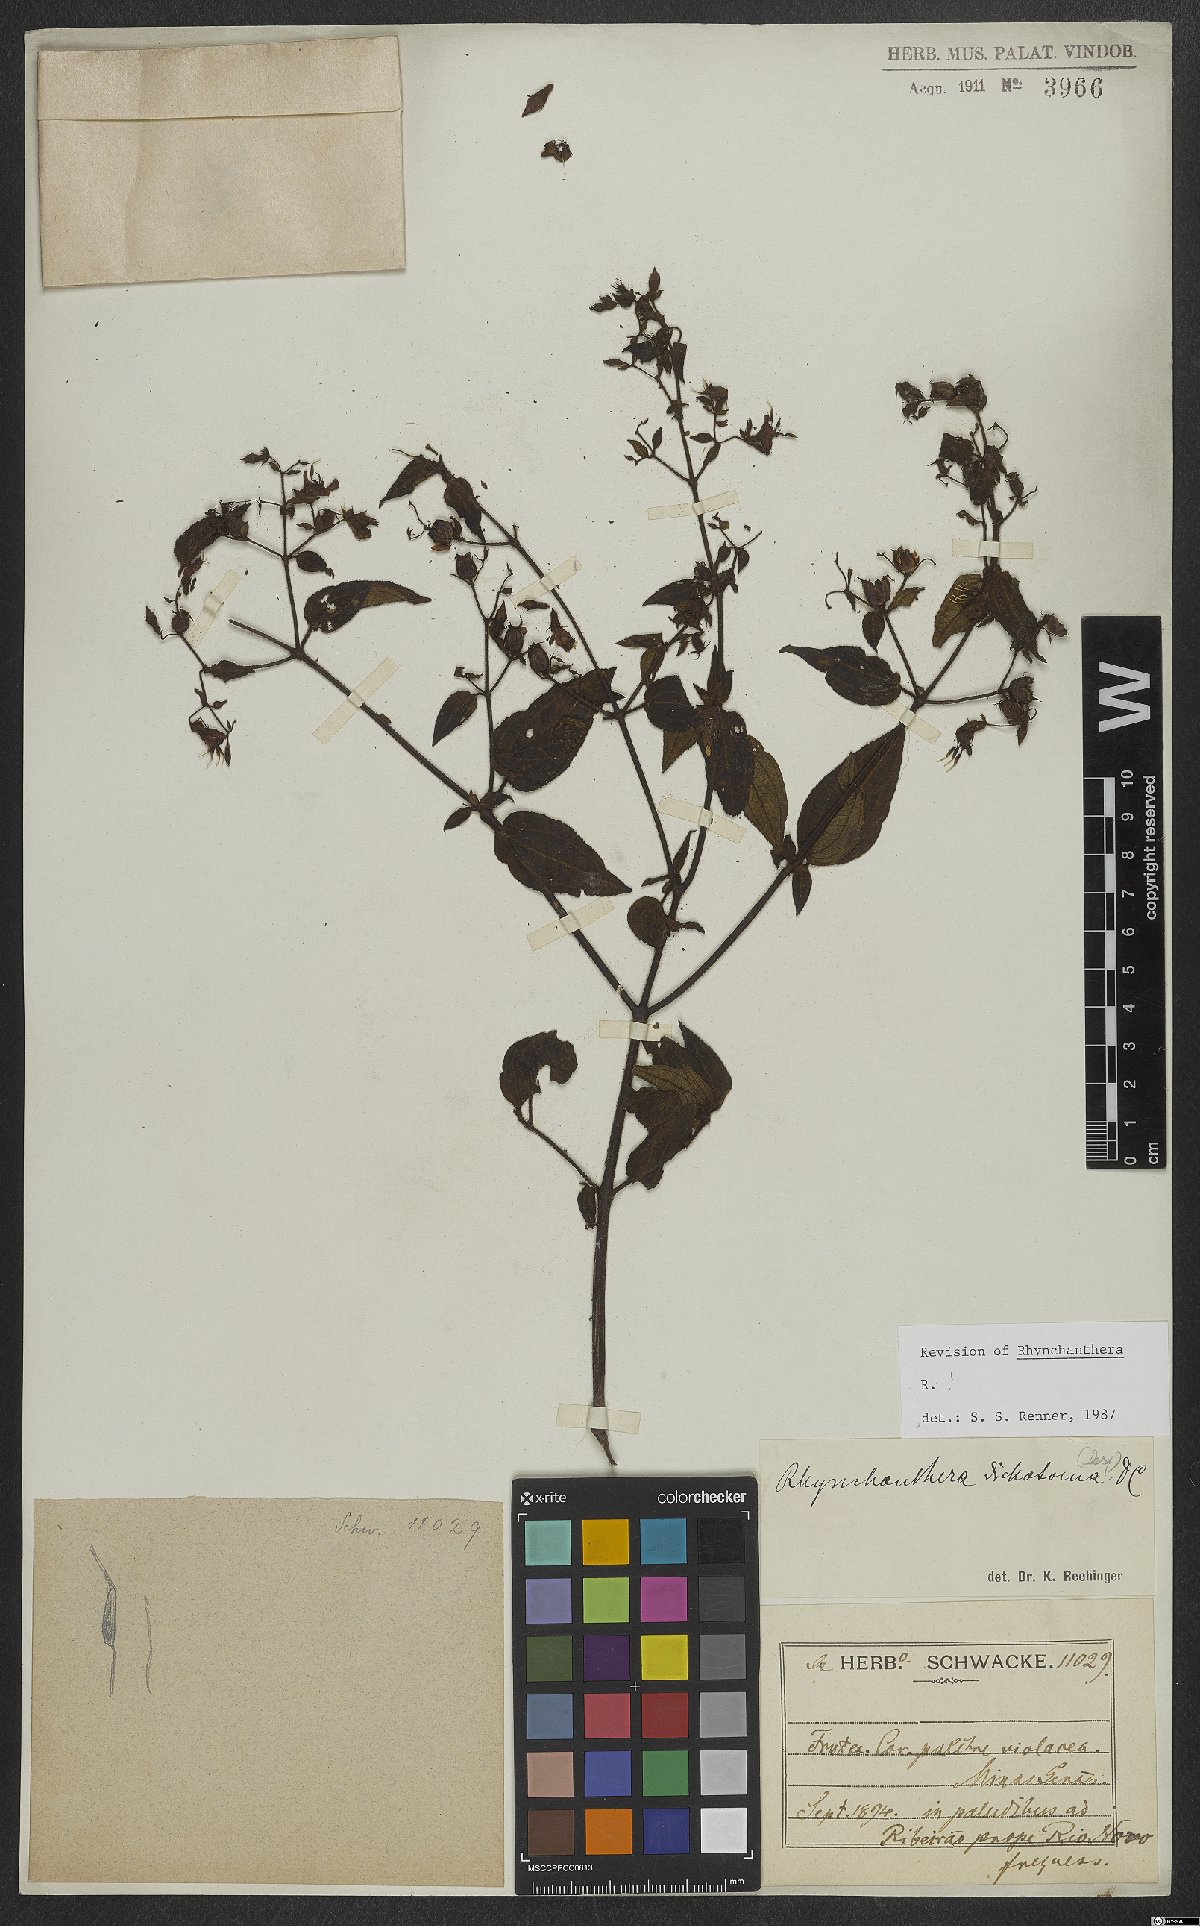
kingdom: Plantae
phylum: Tracheophyta
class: Magnoliopsida
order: Myrtales
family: Melastomataceae
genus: Rhynchanthera
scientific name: Rhynchanthera dichotoma
